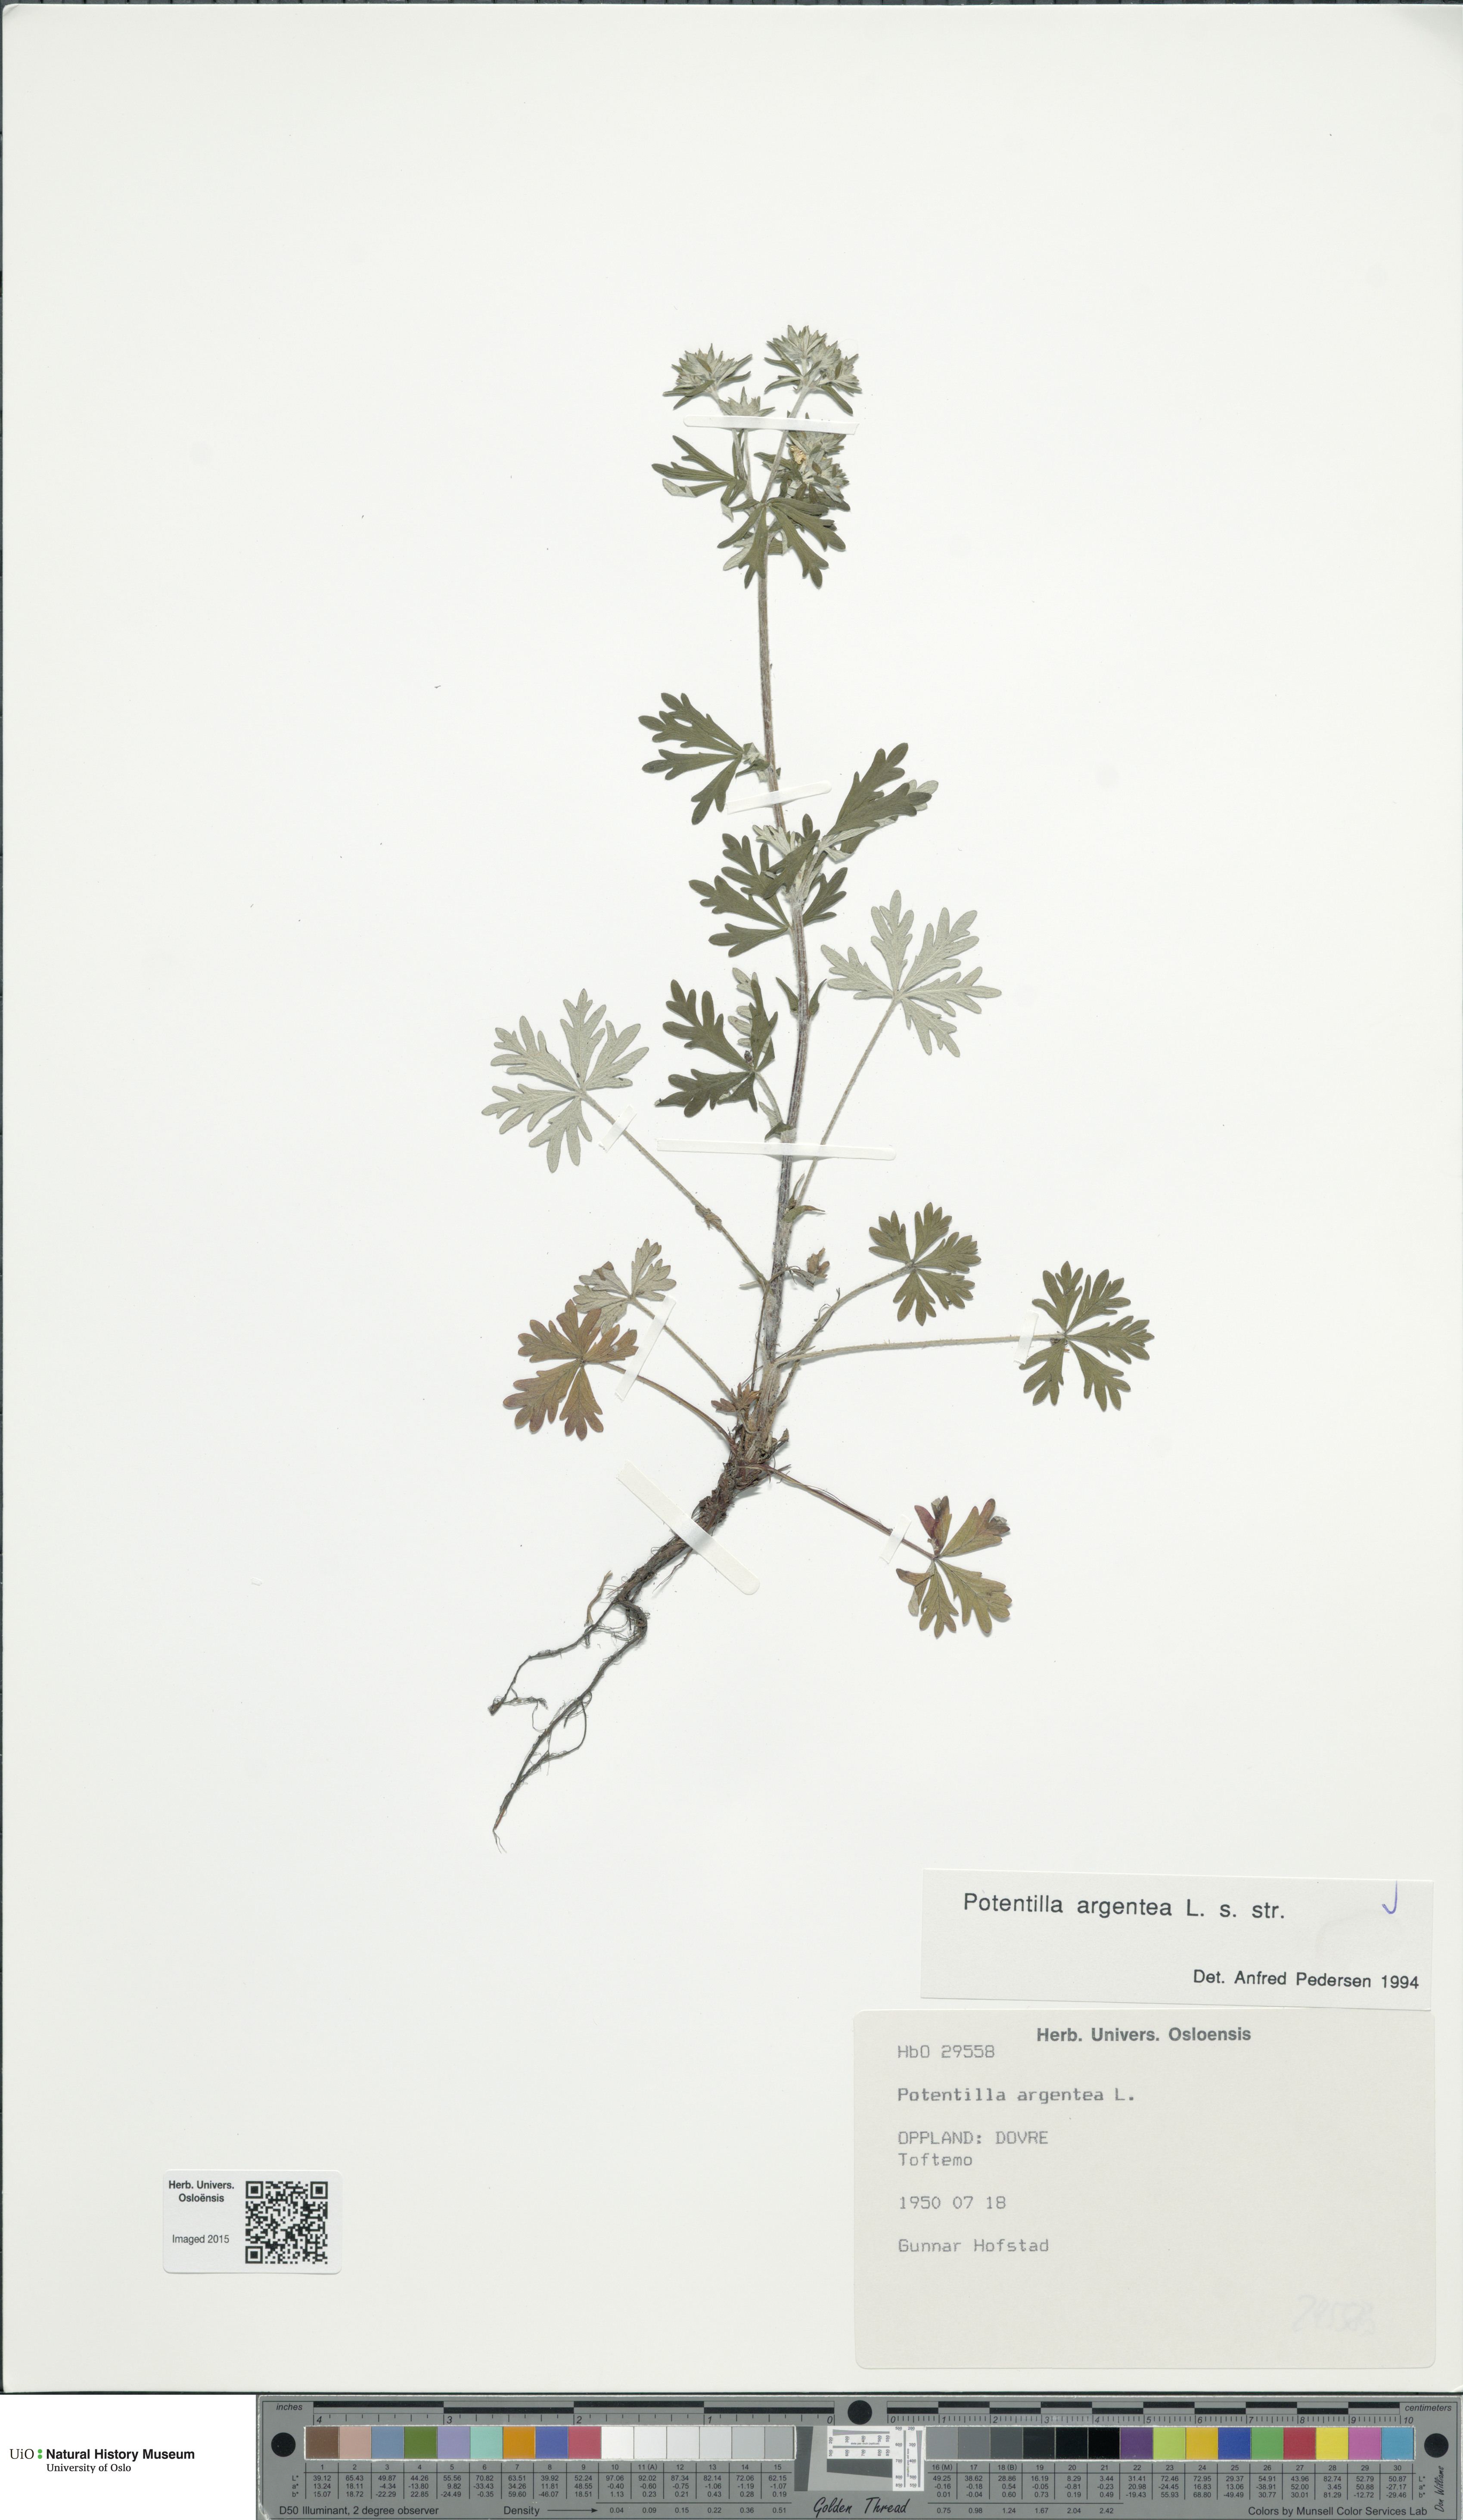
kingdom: Plantae
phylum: Tracheophyta
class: Magnoliopsida
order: Rosales
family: Rosaceae
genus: Potentilla
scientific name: Potentilla argentea
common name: Hoary cinquefoil
